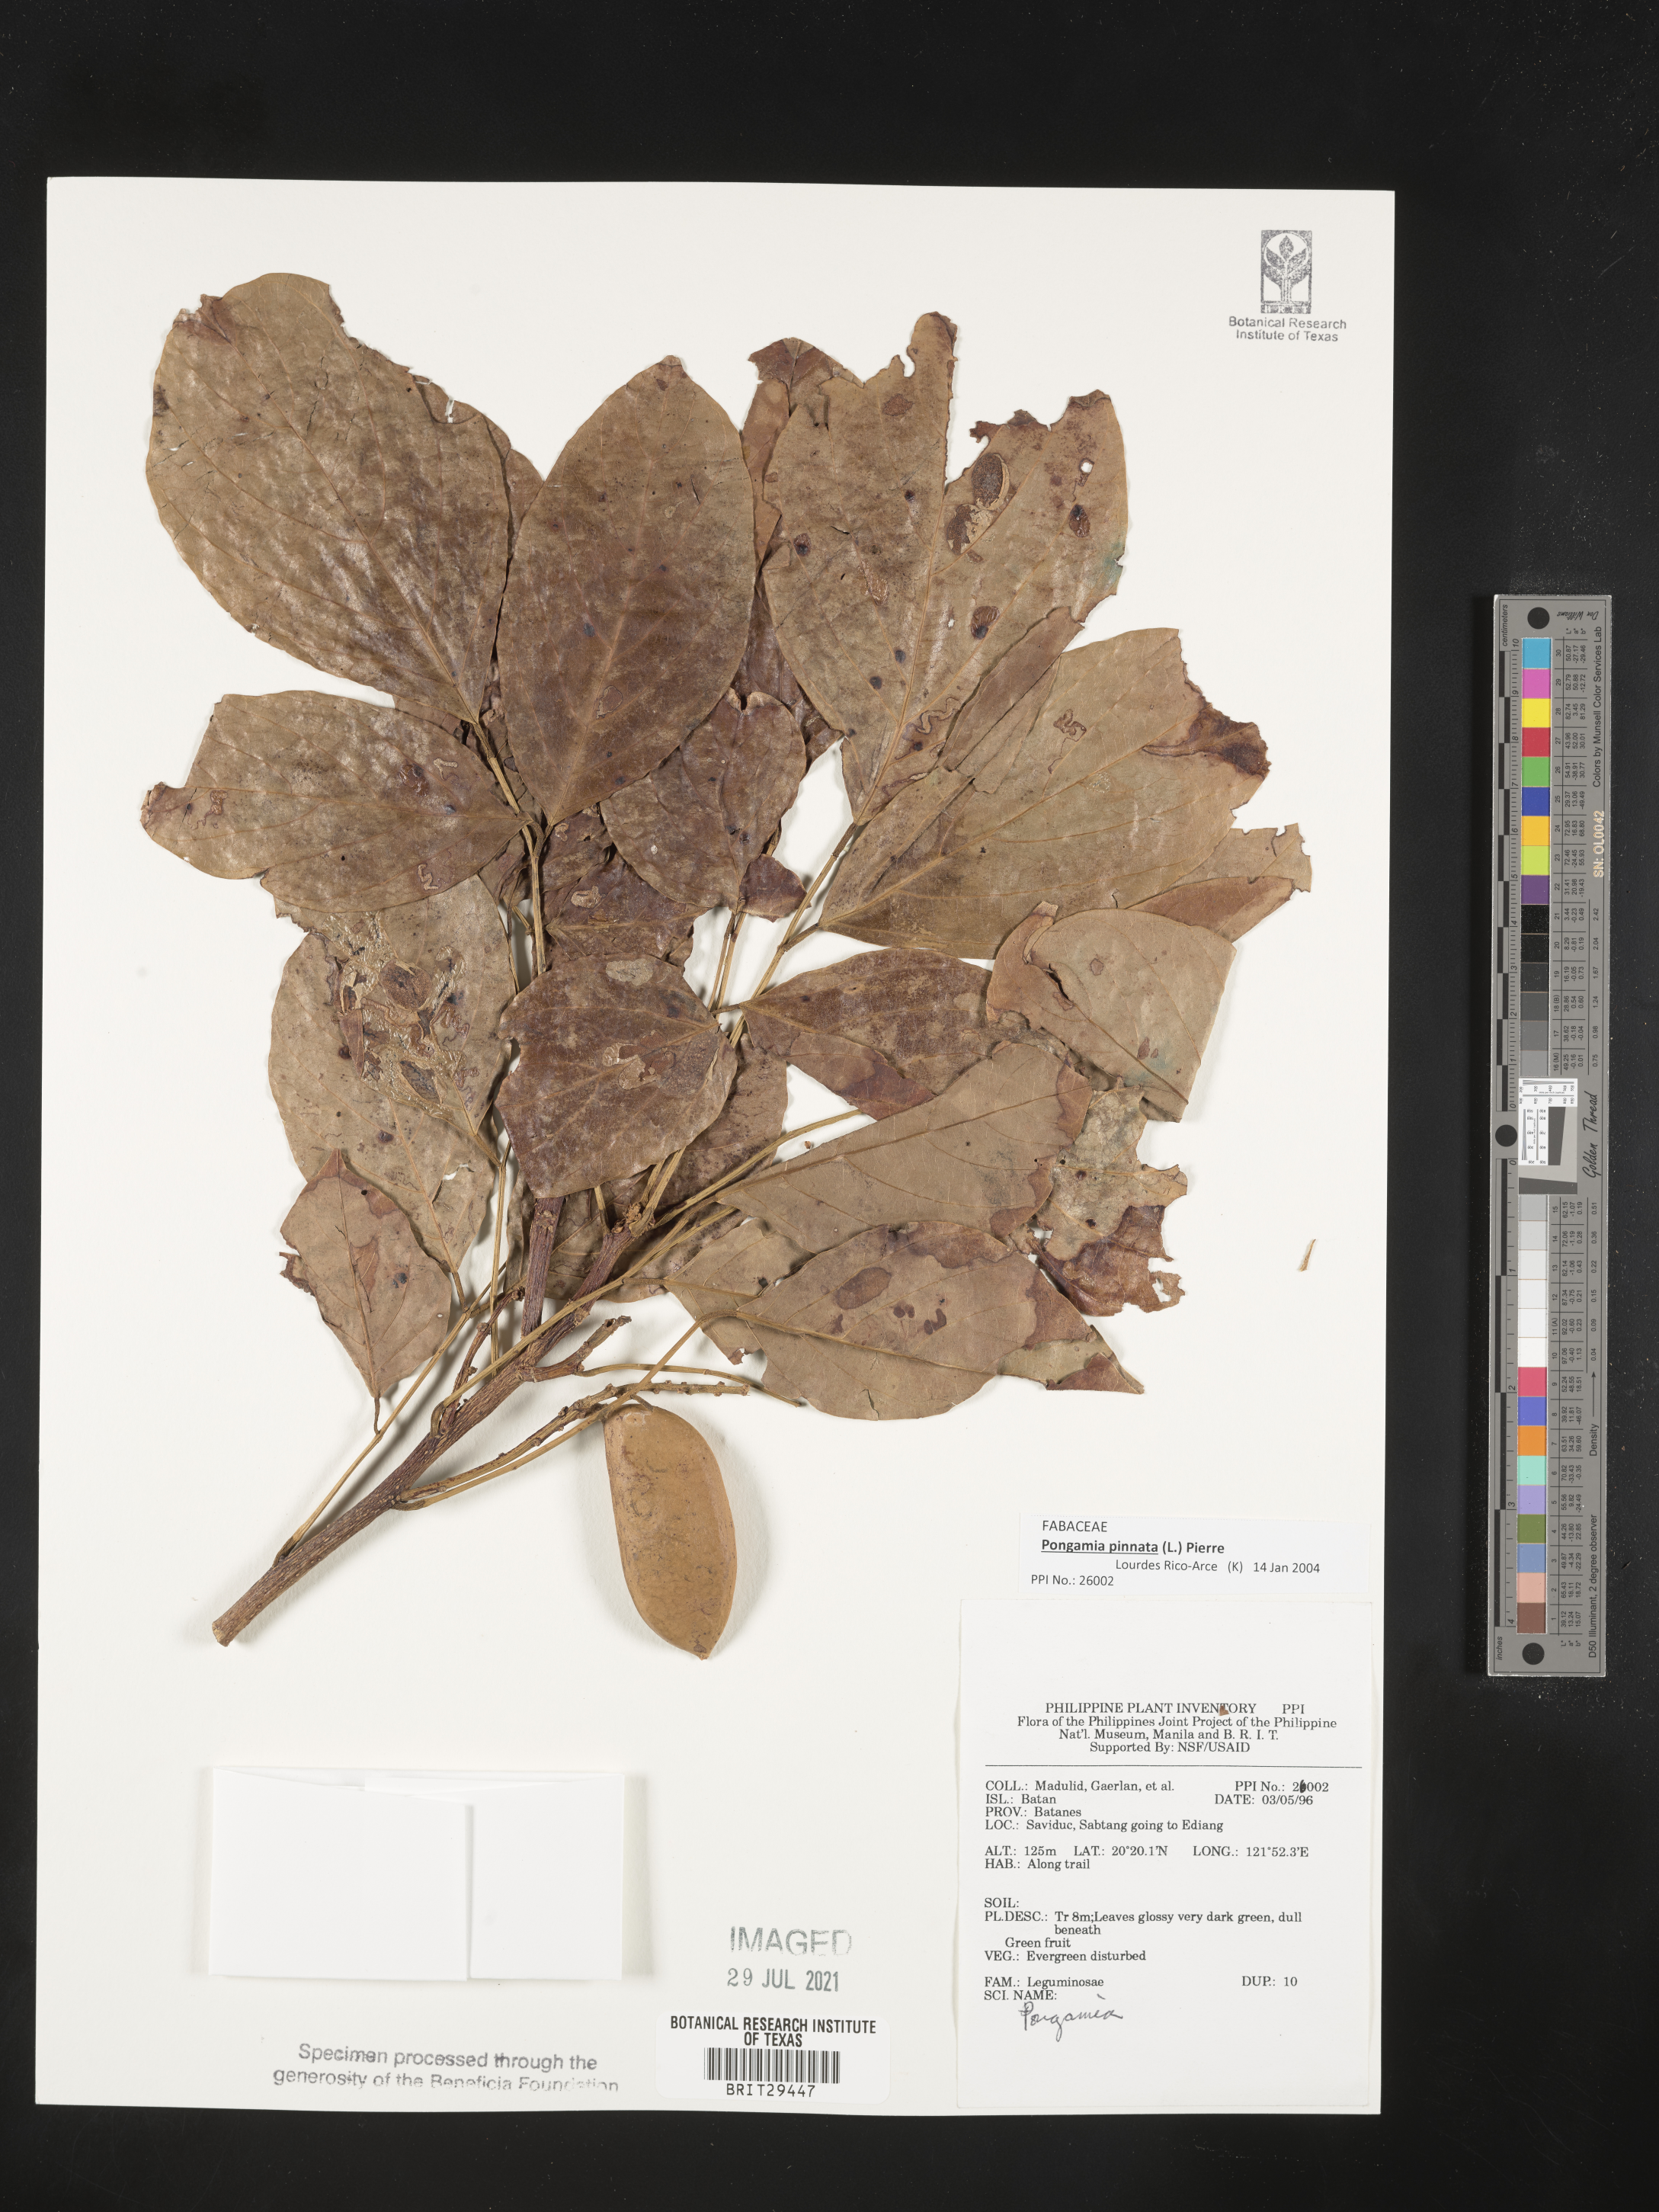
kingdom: Plantae
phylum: Tracheophyta
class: Magnoliopsida
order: Fabales
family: Fabaceae
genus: Pongamia
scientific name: Pongamia pinnata
